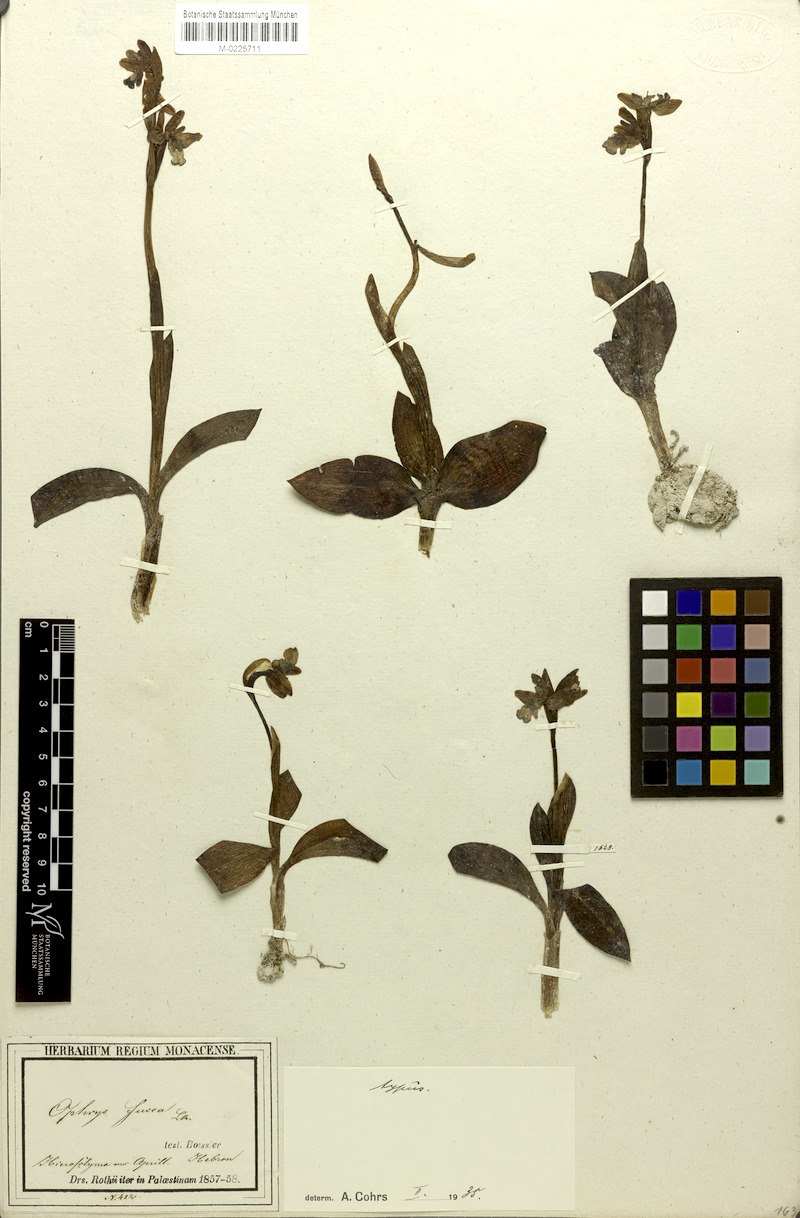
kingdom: Plantae
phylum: Tracheophyta
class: Liliopsida
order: Asparagales
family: Orchidaceae
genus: Ophrys
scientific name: Ophrys fusca
